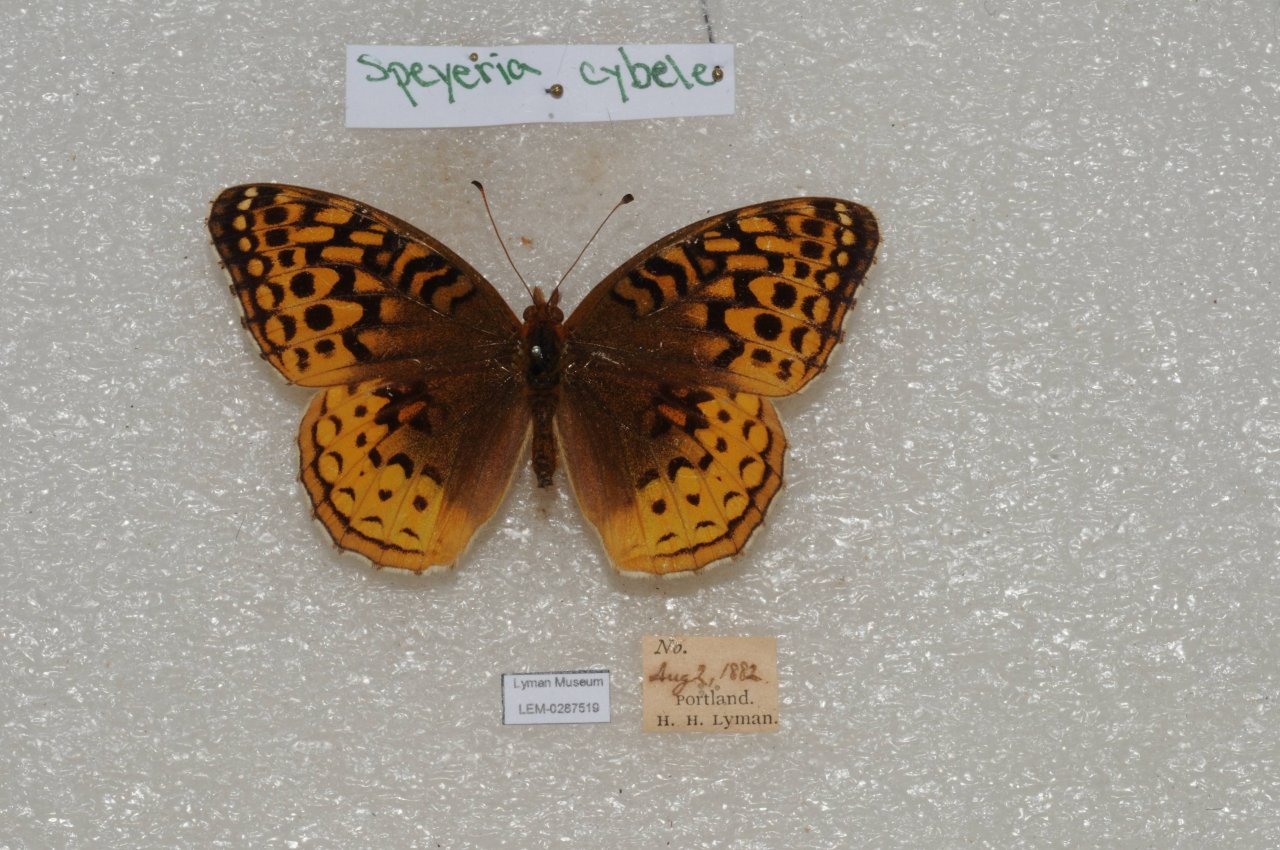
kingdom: Animalia
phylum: Arthropoda
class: Insecta
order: Lepidoptera
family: Nymphalidae
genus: Speyeria
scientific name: Speyeria cybele
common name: Great Spangled Fritillary
